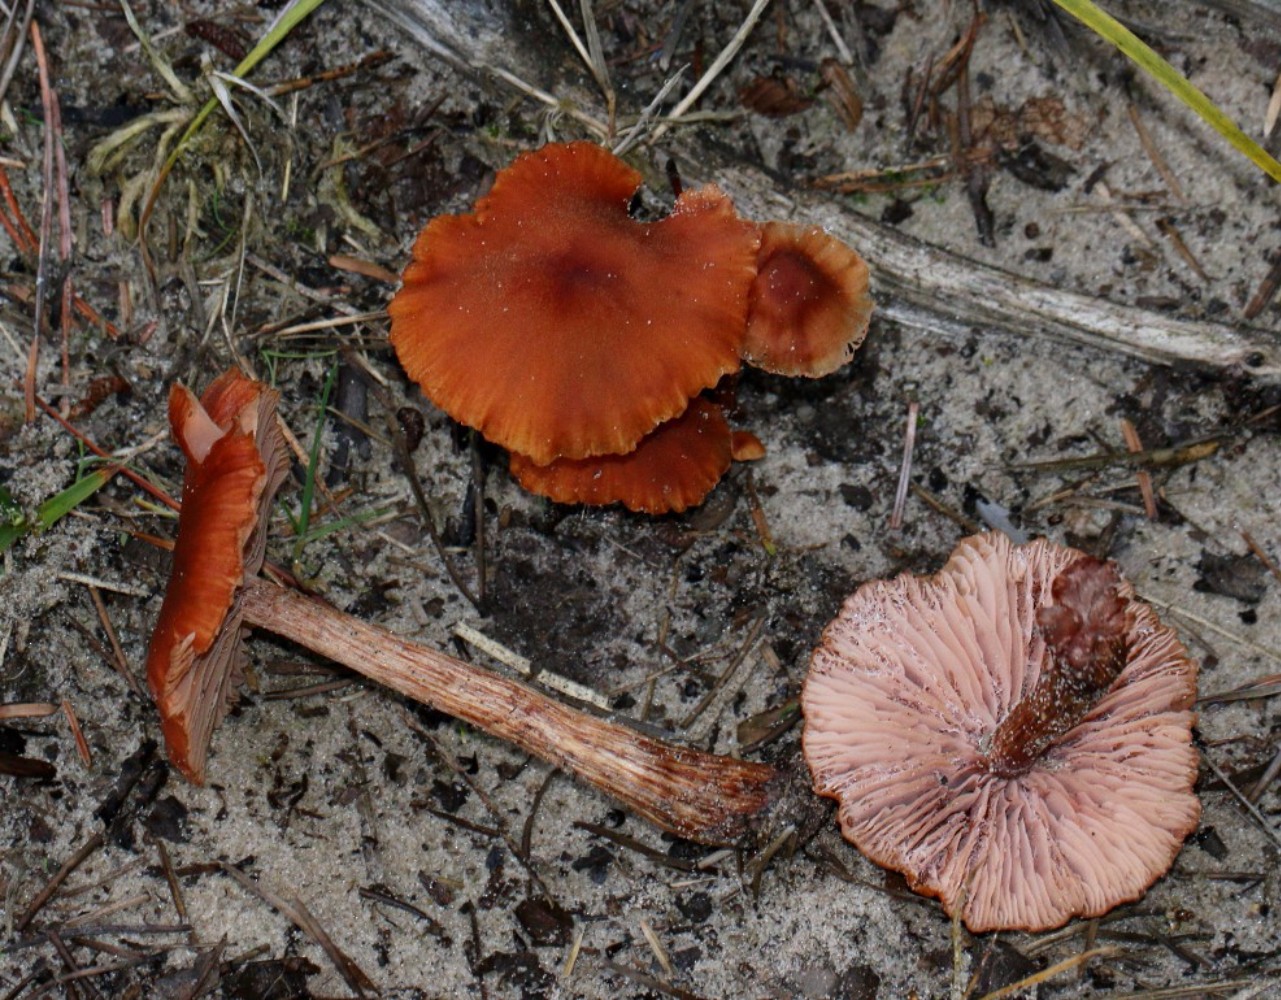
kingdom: Fungi
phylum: Basidiomycota
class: Agaricomycetes
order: Agaricales
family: Hydnangiaceae
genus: Laccaria
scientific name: Laccaria proxima
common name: stor ametysthat
